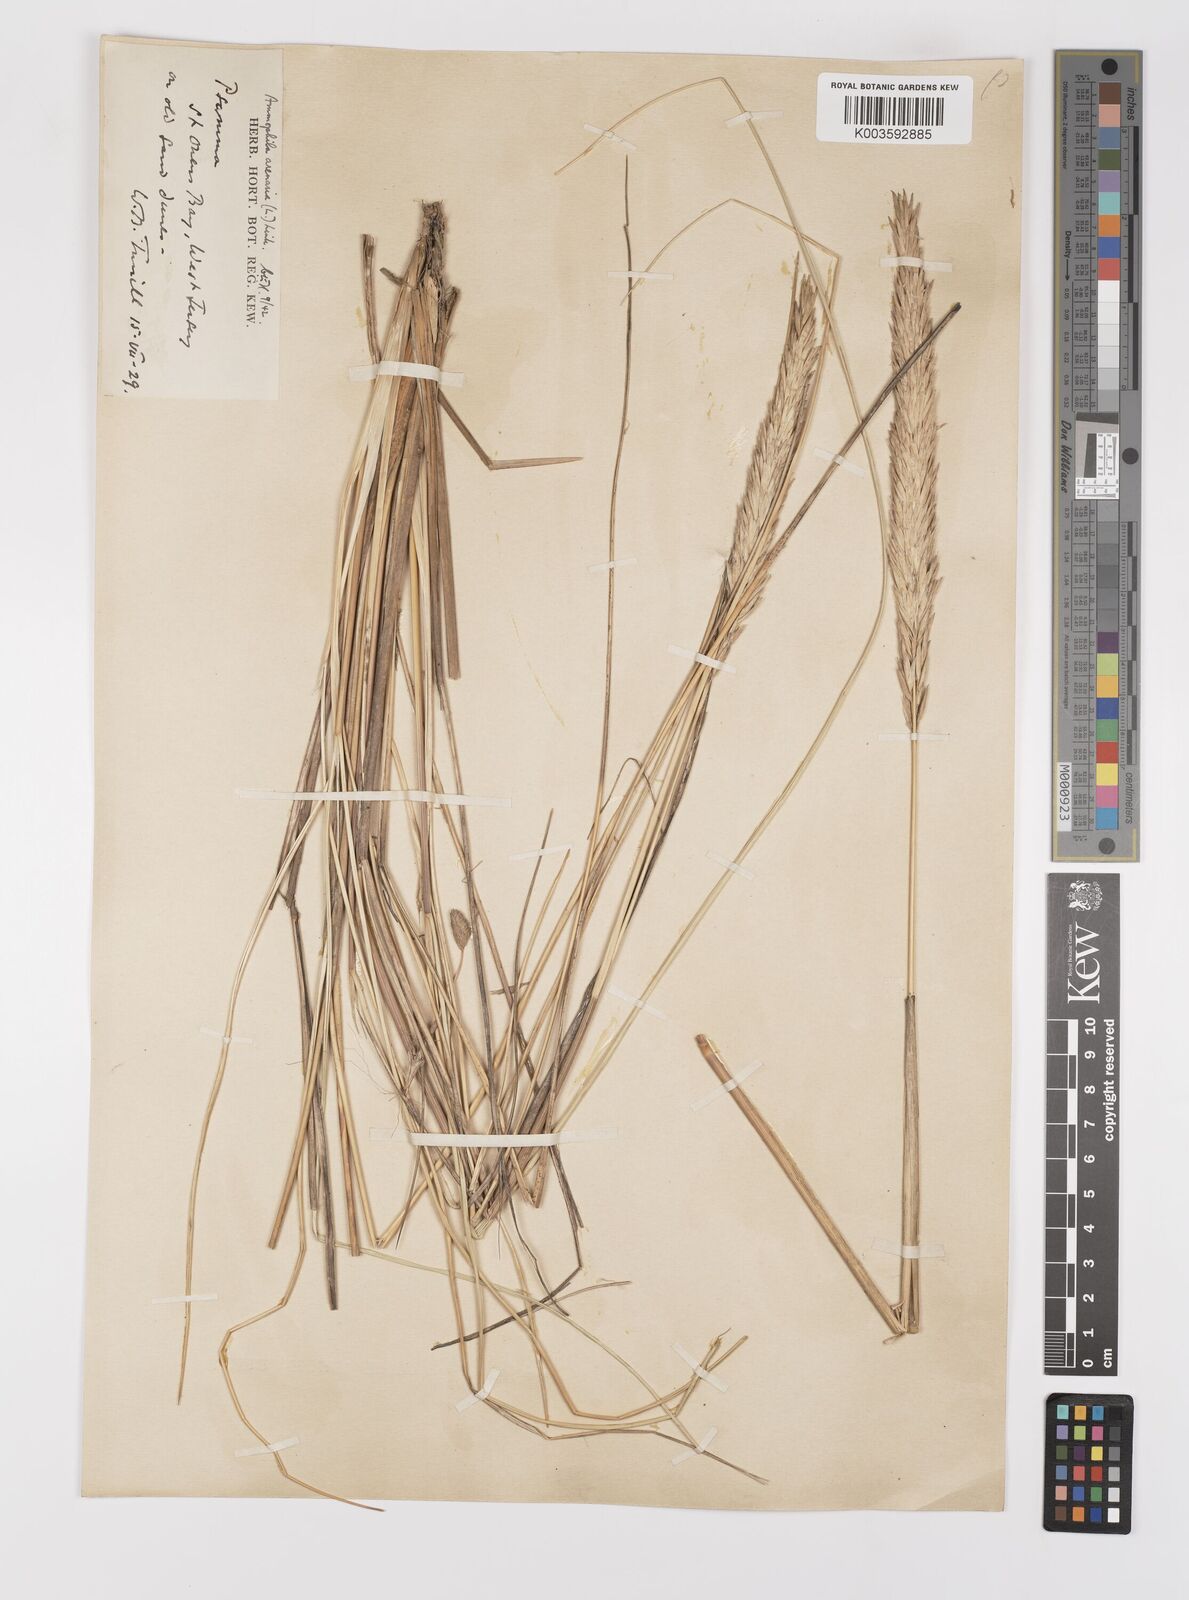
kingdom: Plantae
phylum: Tracheophyta
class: Liliopsida
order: Poales
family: Poaceae
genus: Calamagrostis
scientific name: Calamagrostis arenaria
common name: European beachgrass
